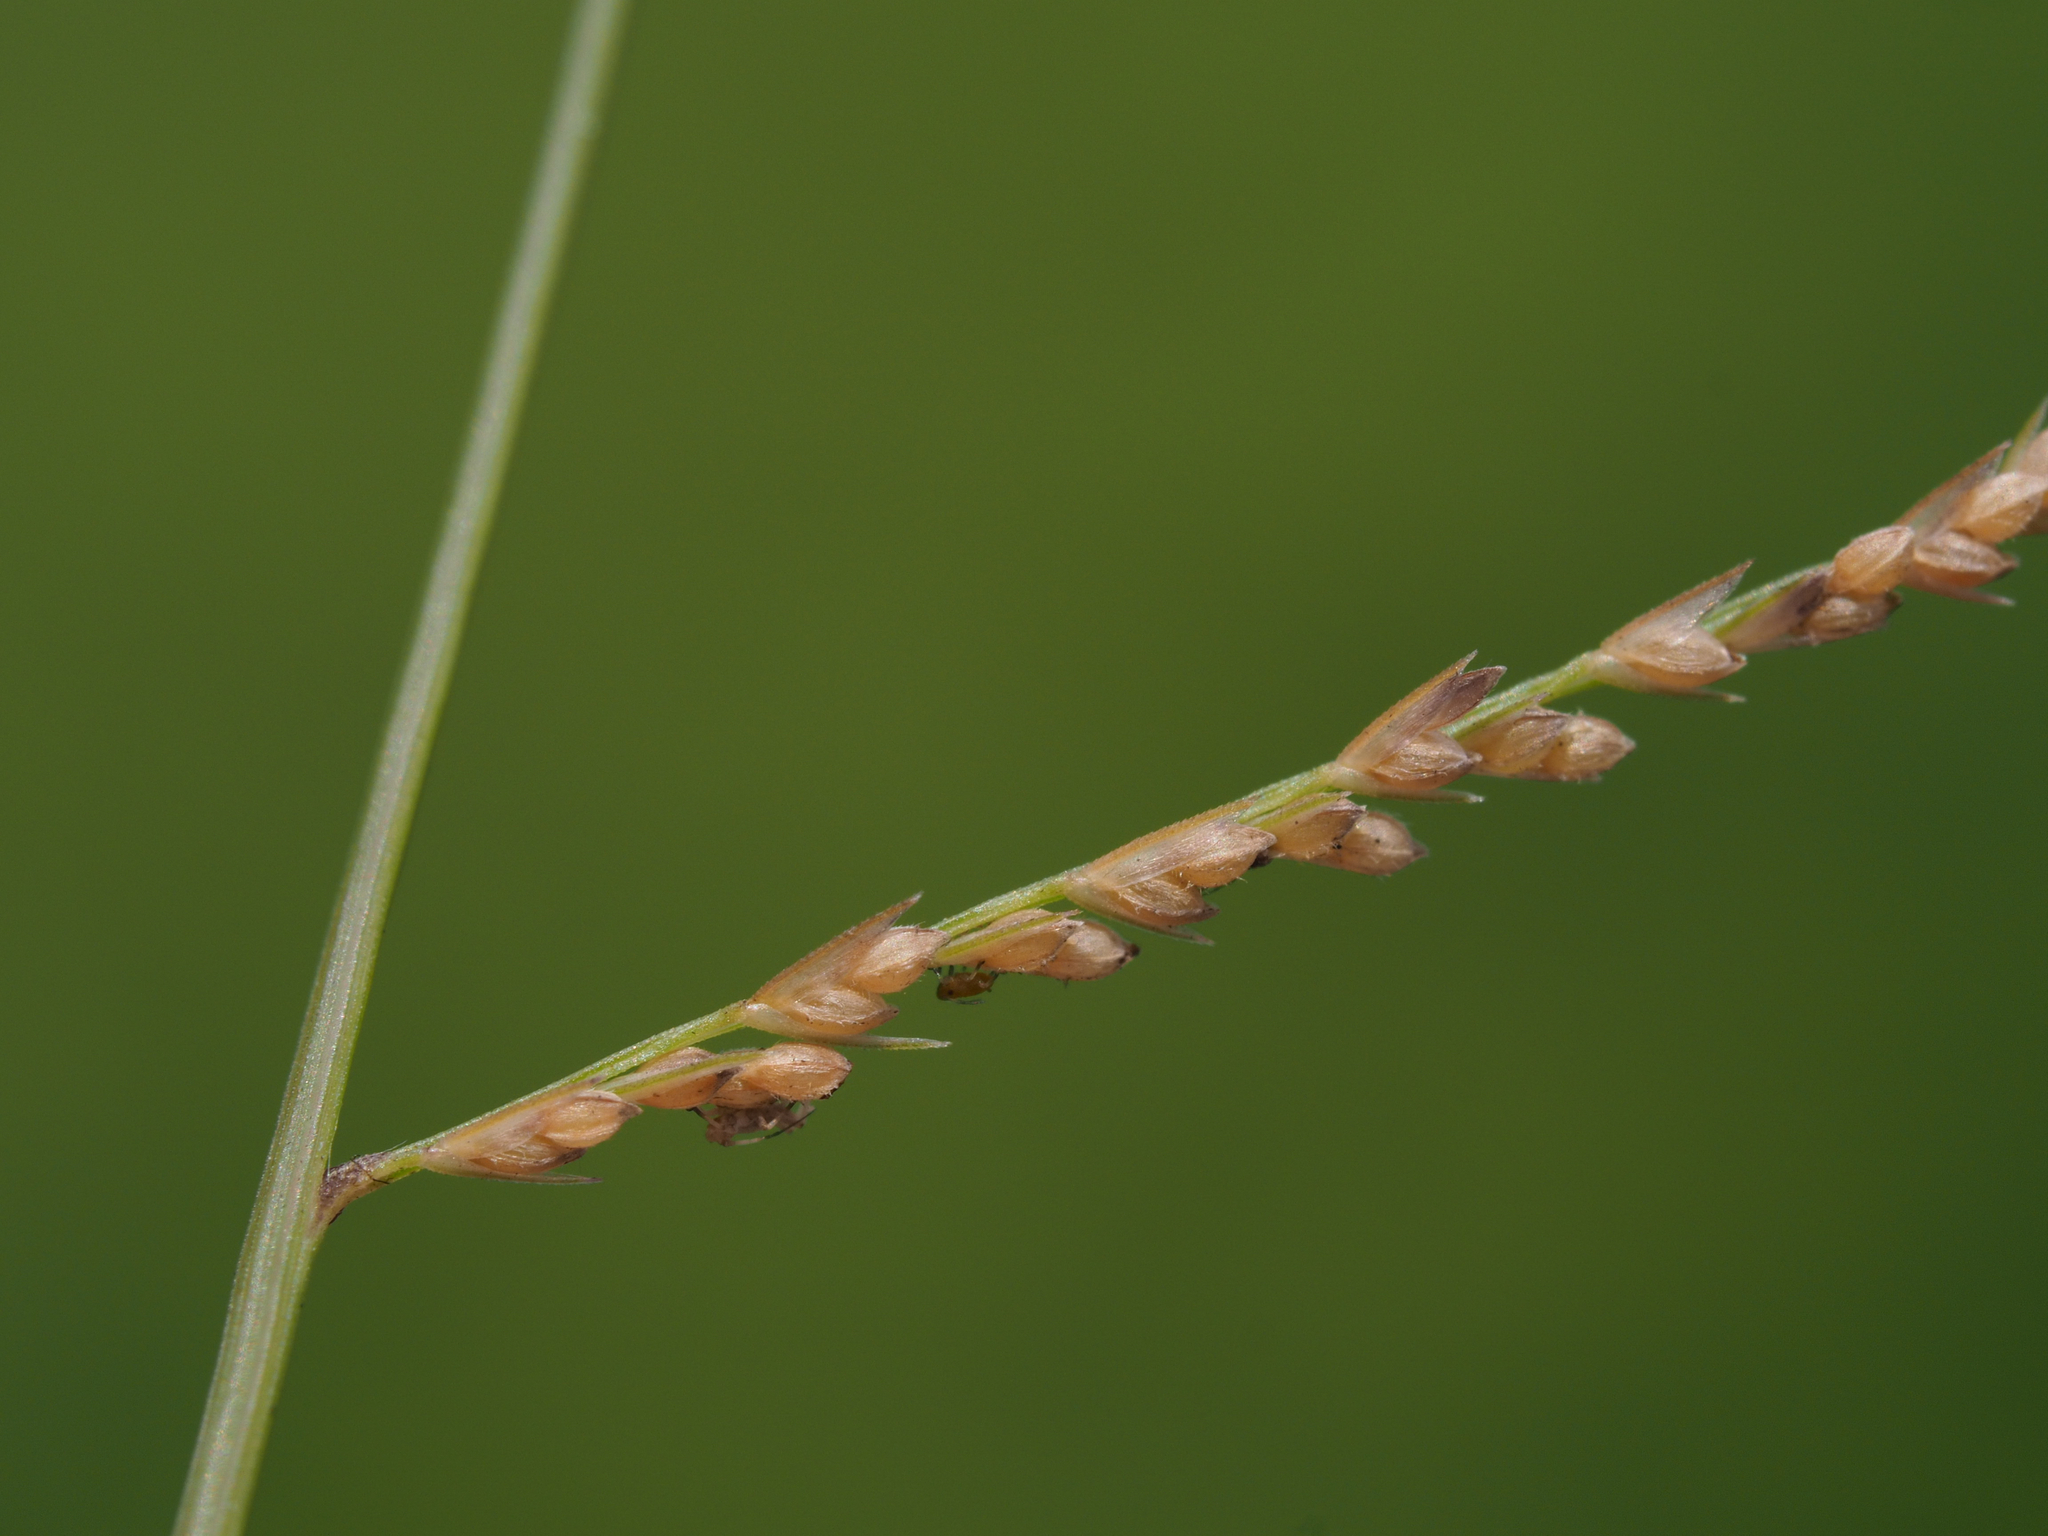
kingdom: Plantae
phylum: Tracheophyta
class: Liliopsida
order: Poales
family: Poaceae
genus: Leptochloa
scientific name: Leptochloa panicea
